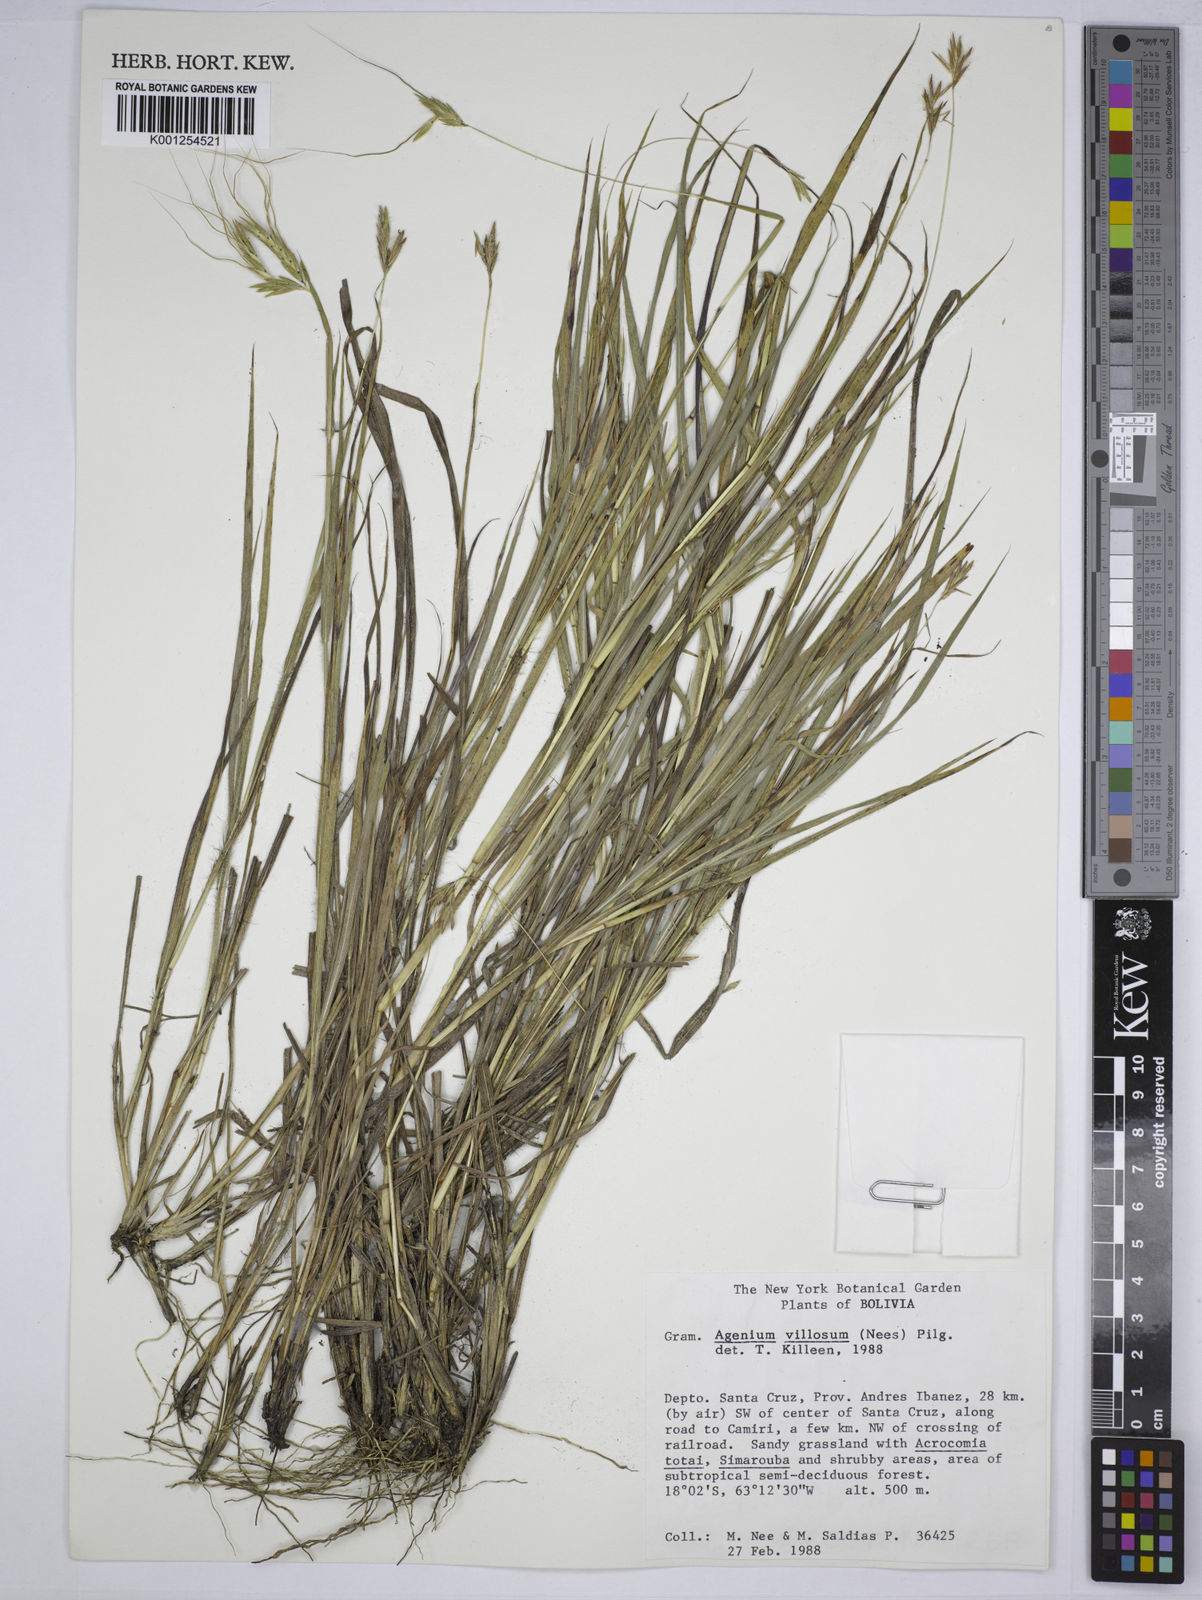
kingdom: Plantae
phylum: Tracheophyta
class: Liliopsida
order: Poales
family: Poaceae
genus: Agenium
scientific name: Agenium villosum
